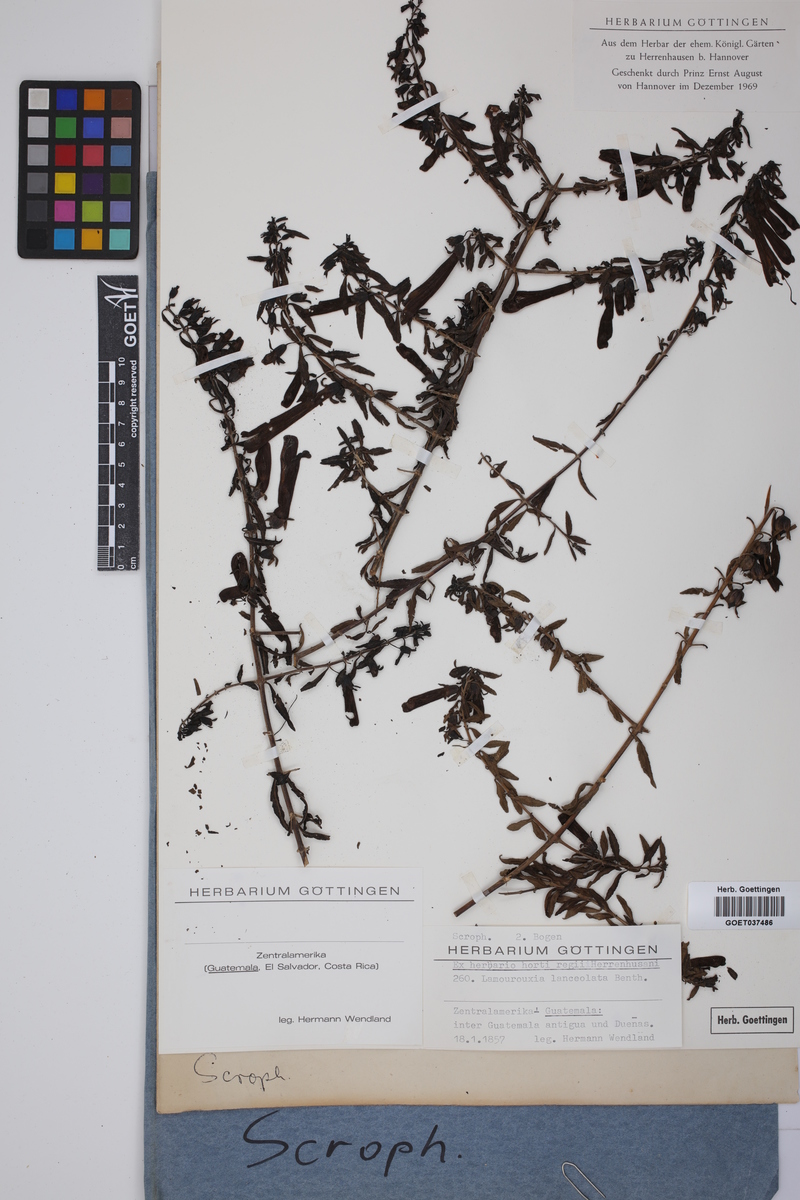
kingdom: Plantae
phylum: Tracheophyta
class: Magnoliopsida
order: Lamiales
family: Orobanchaceae
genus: Lamourouxia
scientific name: Lamourouxia lanceolata
